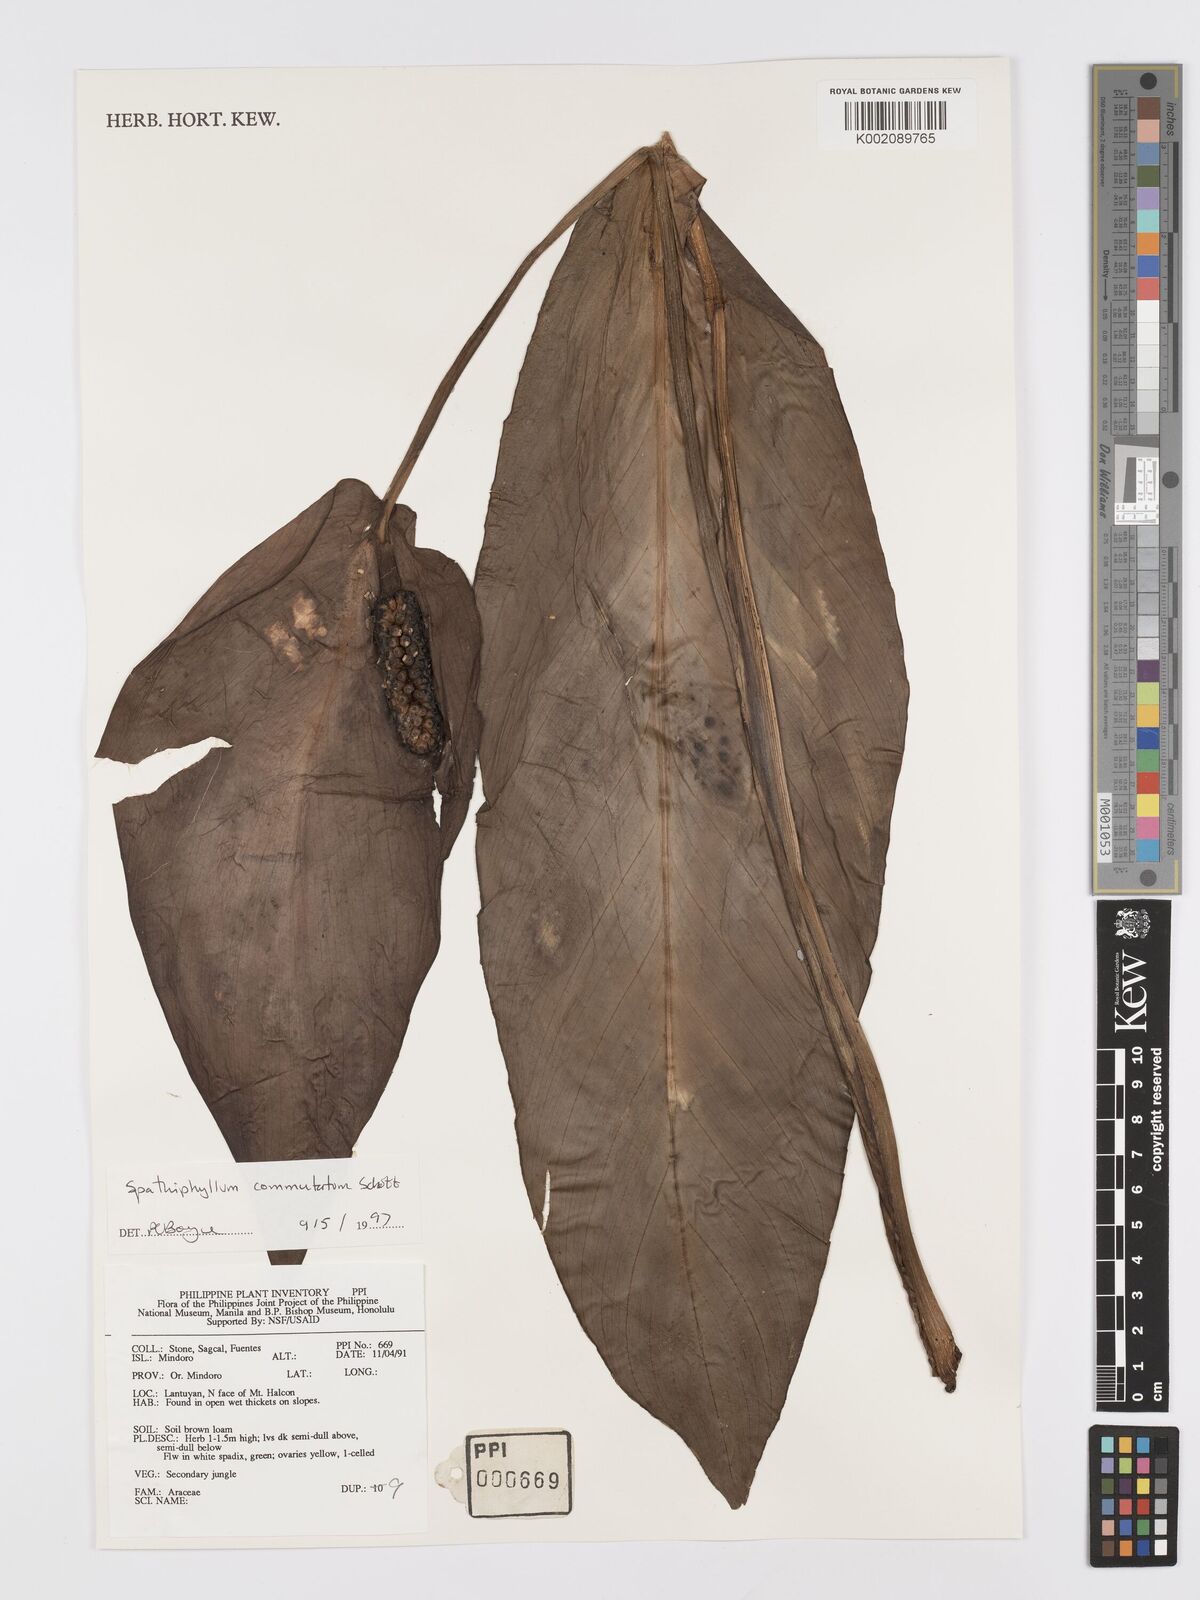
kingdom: Plantae
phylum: Tracheophyta
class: Liliopsida
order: Alismatales
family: Araceae
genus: Spathiphyllum
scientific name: Spathiphyllum commutatum
